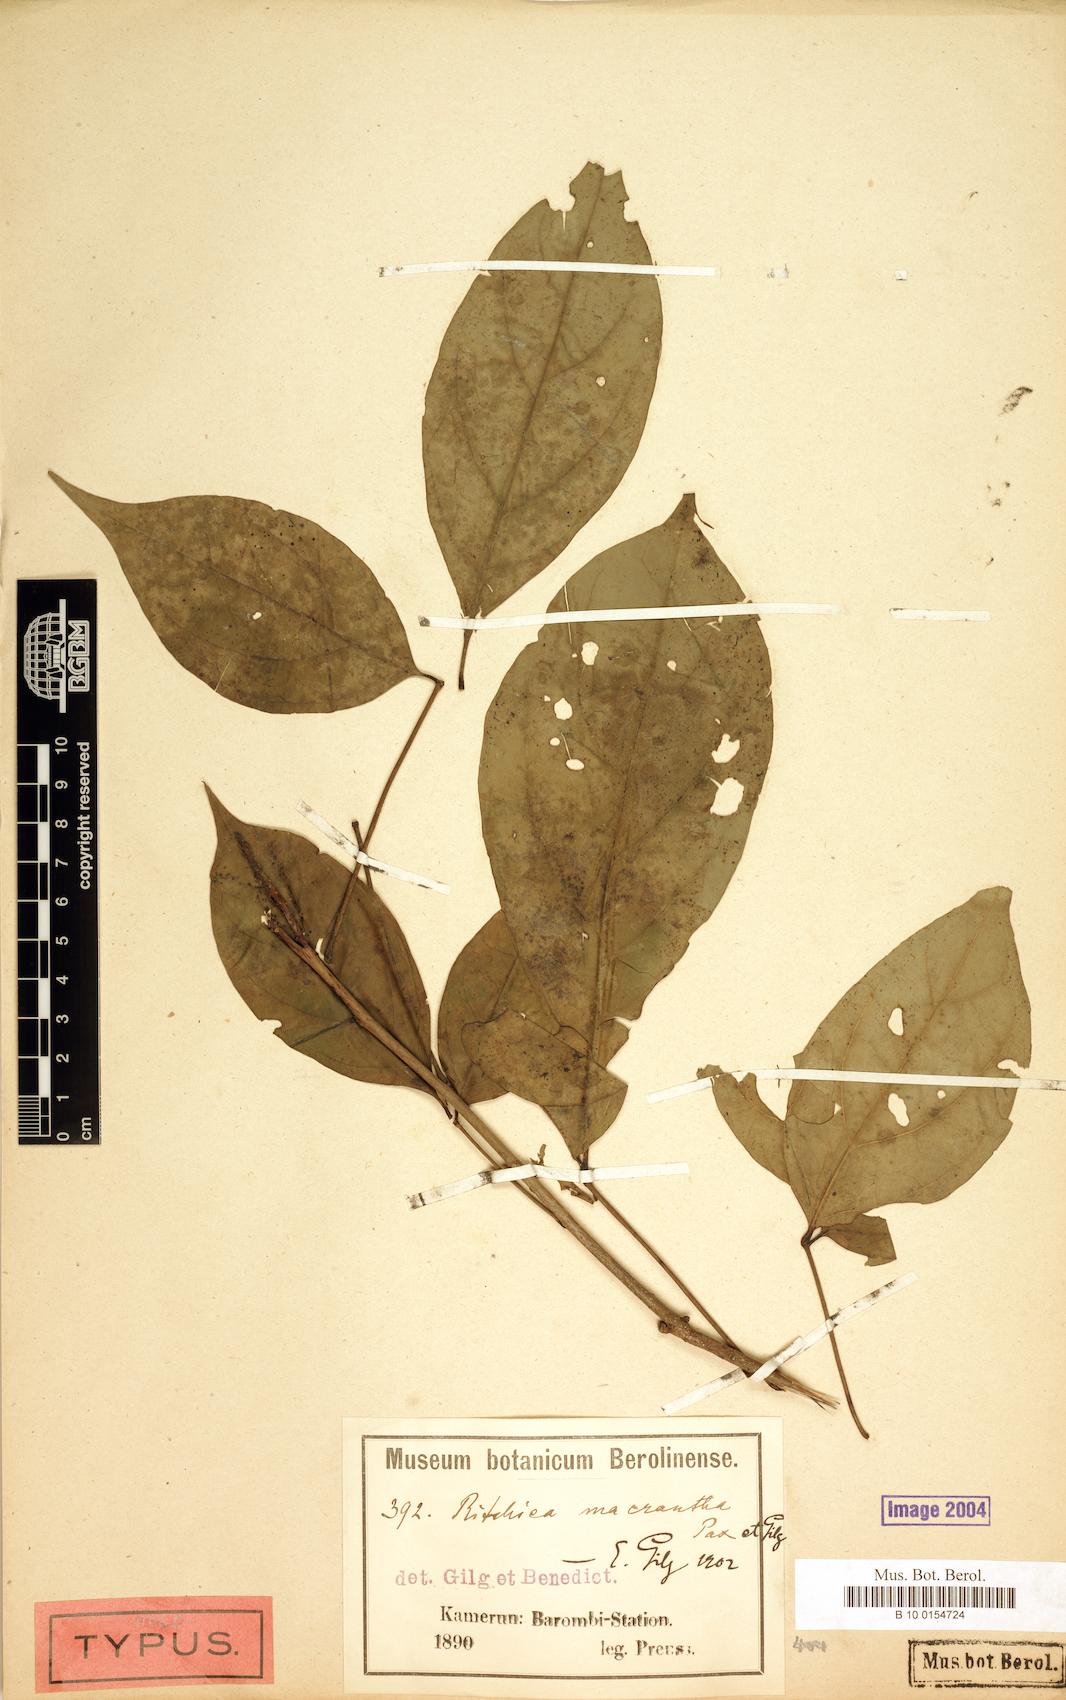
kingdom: Plantae
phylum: Tracheophyta
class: Magnoliopsida
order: Brassicales
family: Capparaceae
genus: Ritchiea
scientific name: Ritchiea macrantha
